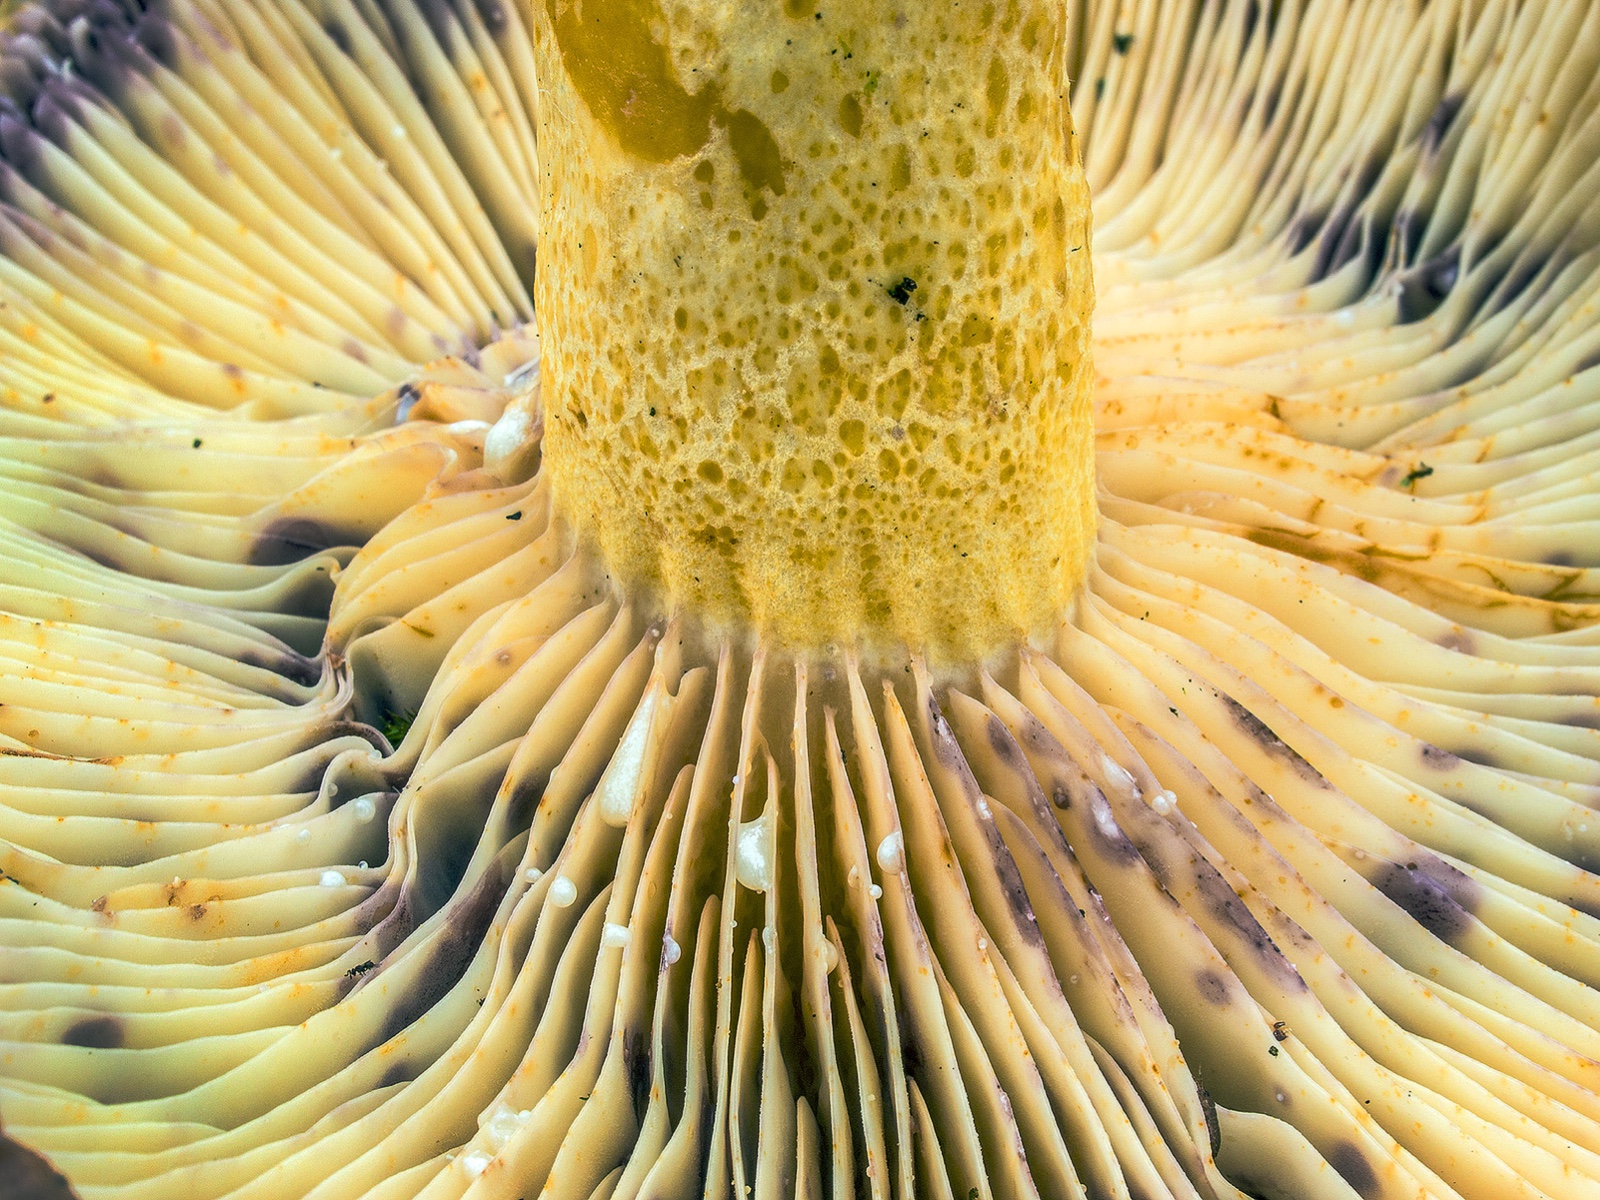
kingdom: Fungi
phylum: Basidiomycota
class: Agaricomycetes
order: Russulales
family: Russulaceae
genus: Lactarius
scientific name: Lactarius repraesentaneus
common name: prægtig mælkehat
